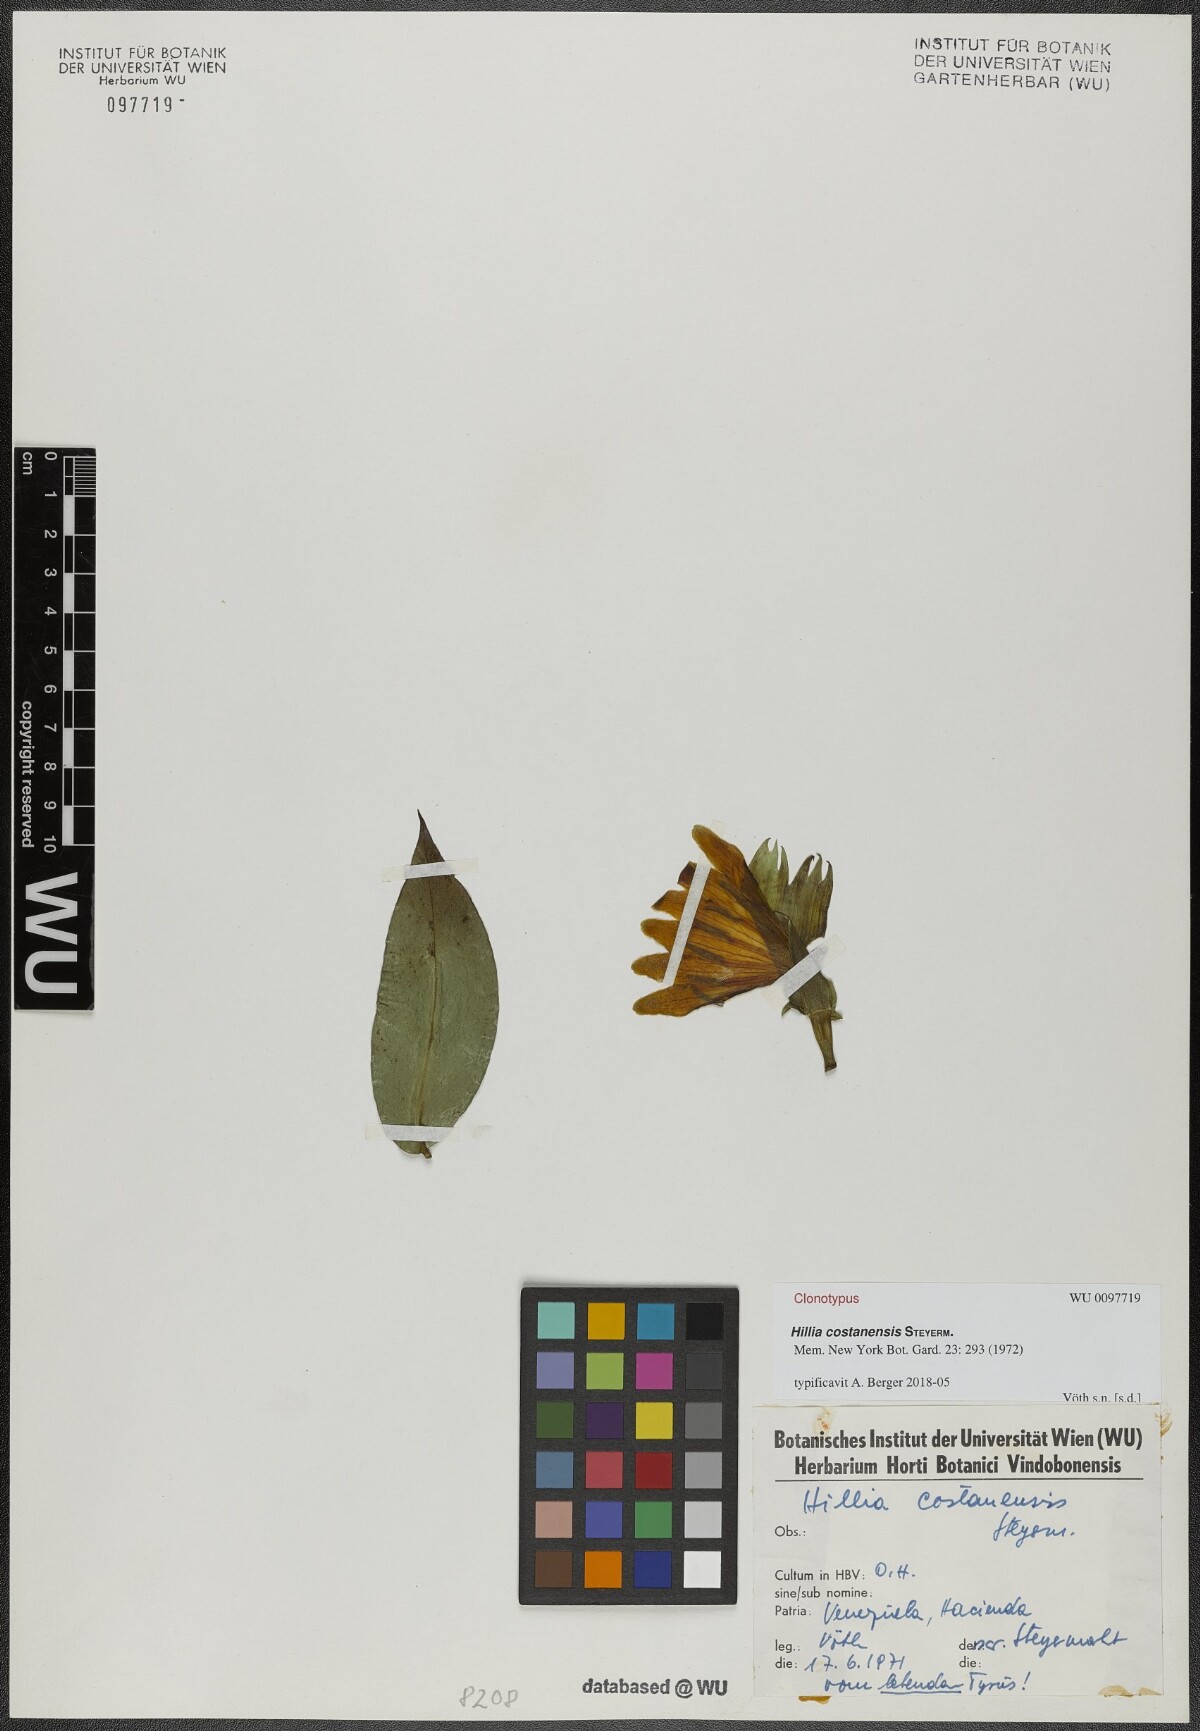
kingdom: Plantae
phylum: Tracheophyta
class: Magnoliopsida
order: Gentianales
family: Rubiaceae
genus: Hillia
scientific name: Hillia costanensis
